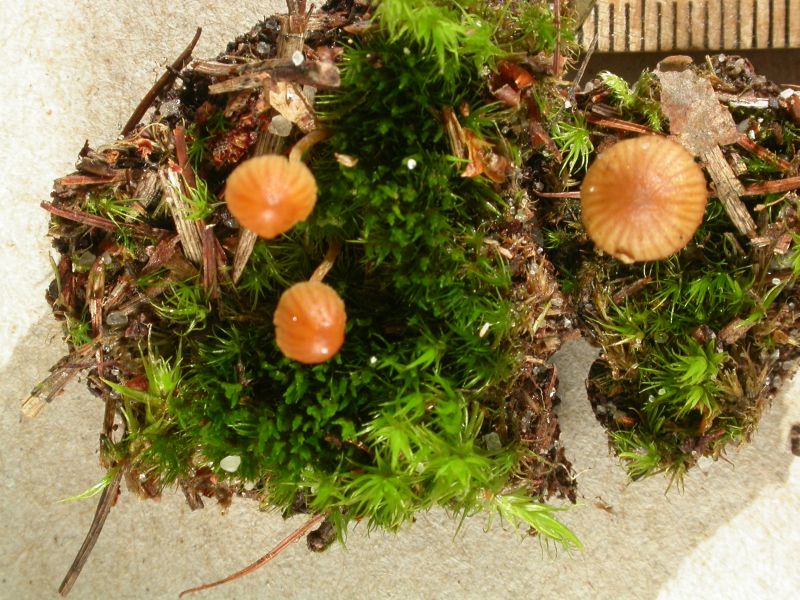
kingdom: Fungi
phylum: Basidiomycota
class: Agaricomycetes
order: Agaricales
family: Hymenogastraceae
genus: Galerina
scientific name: Galerina calyptrata
